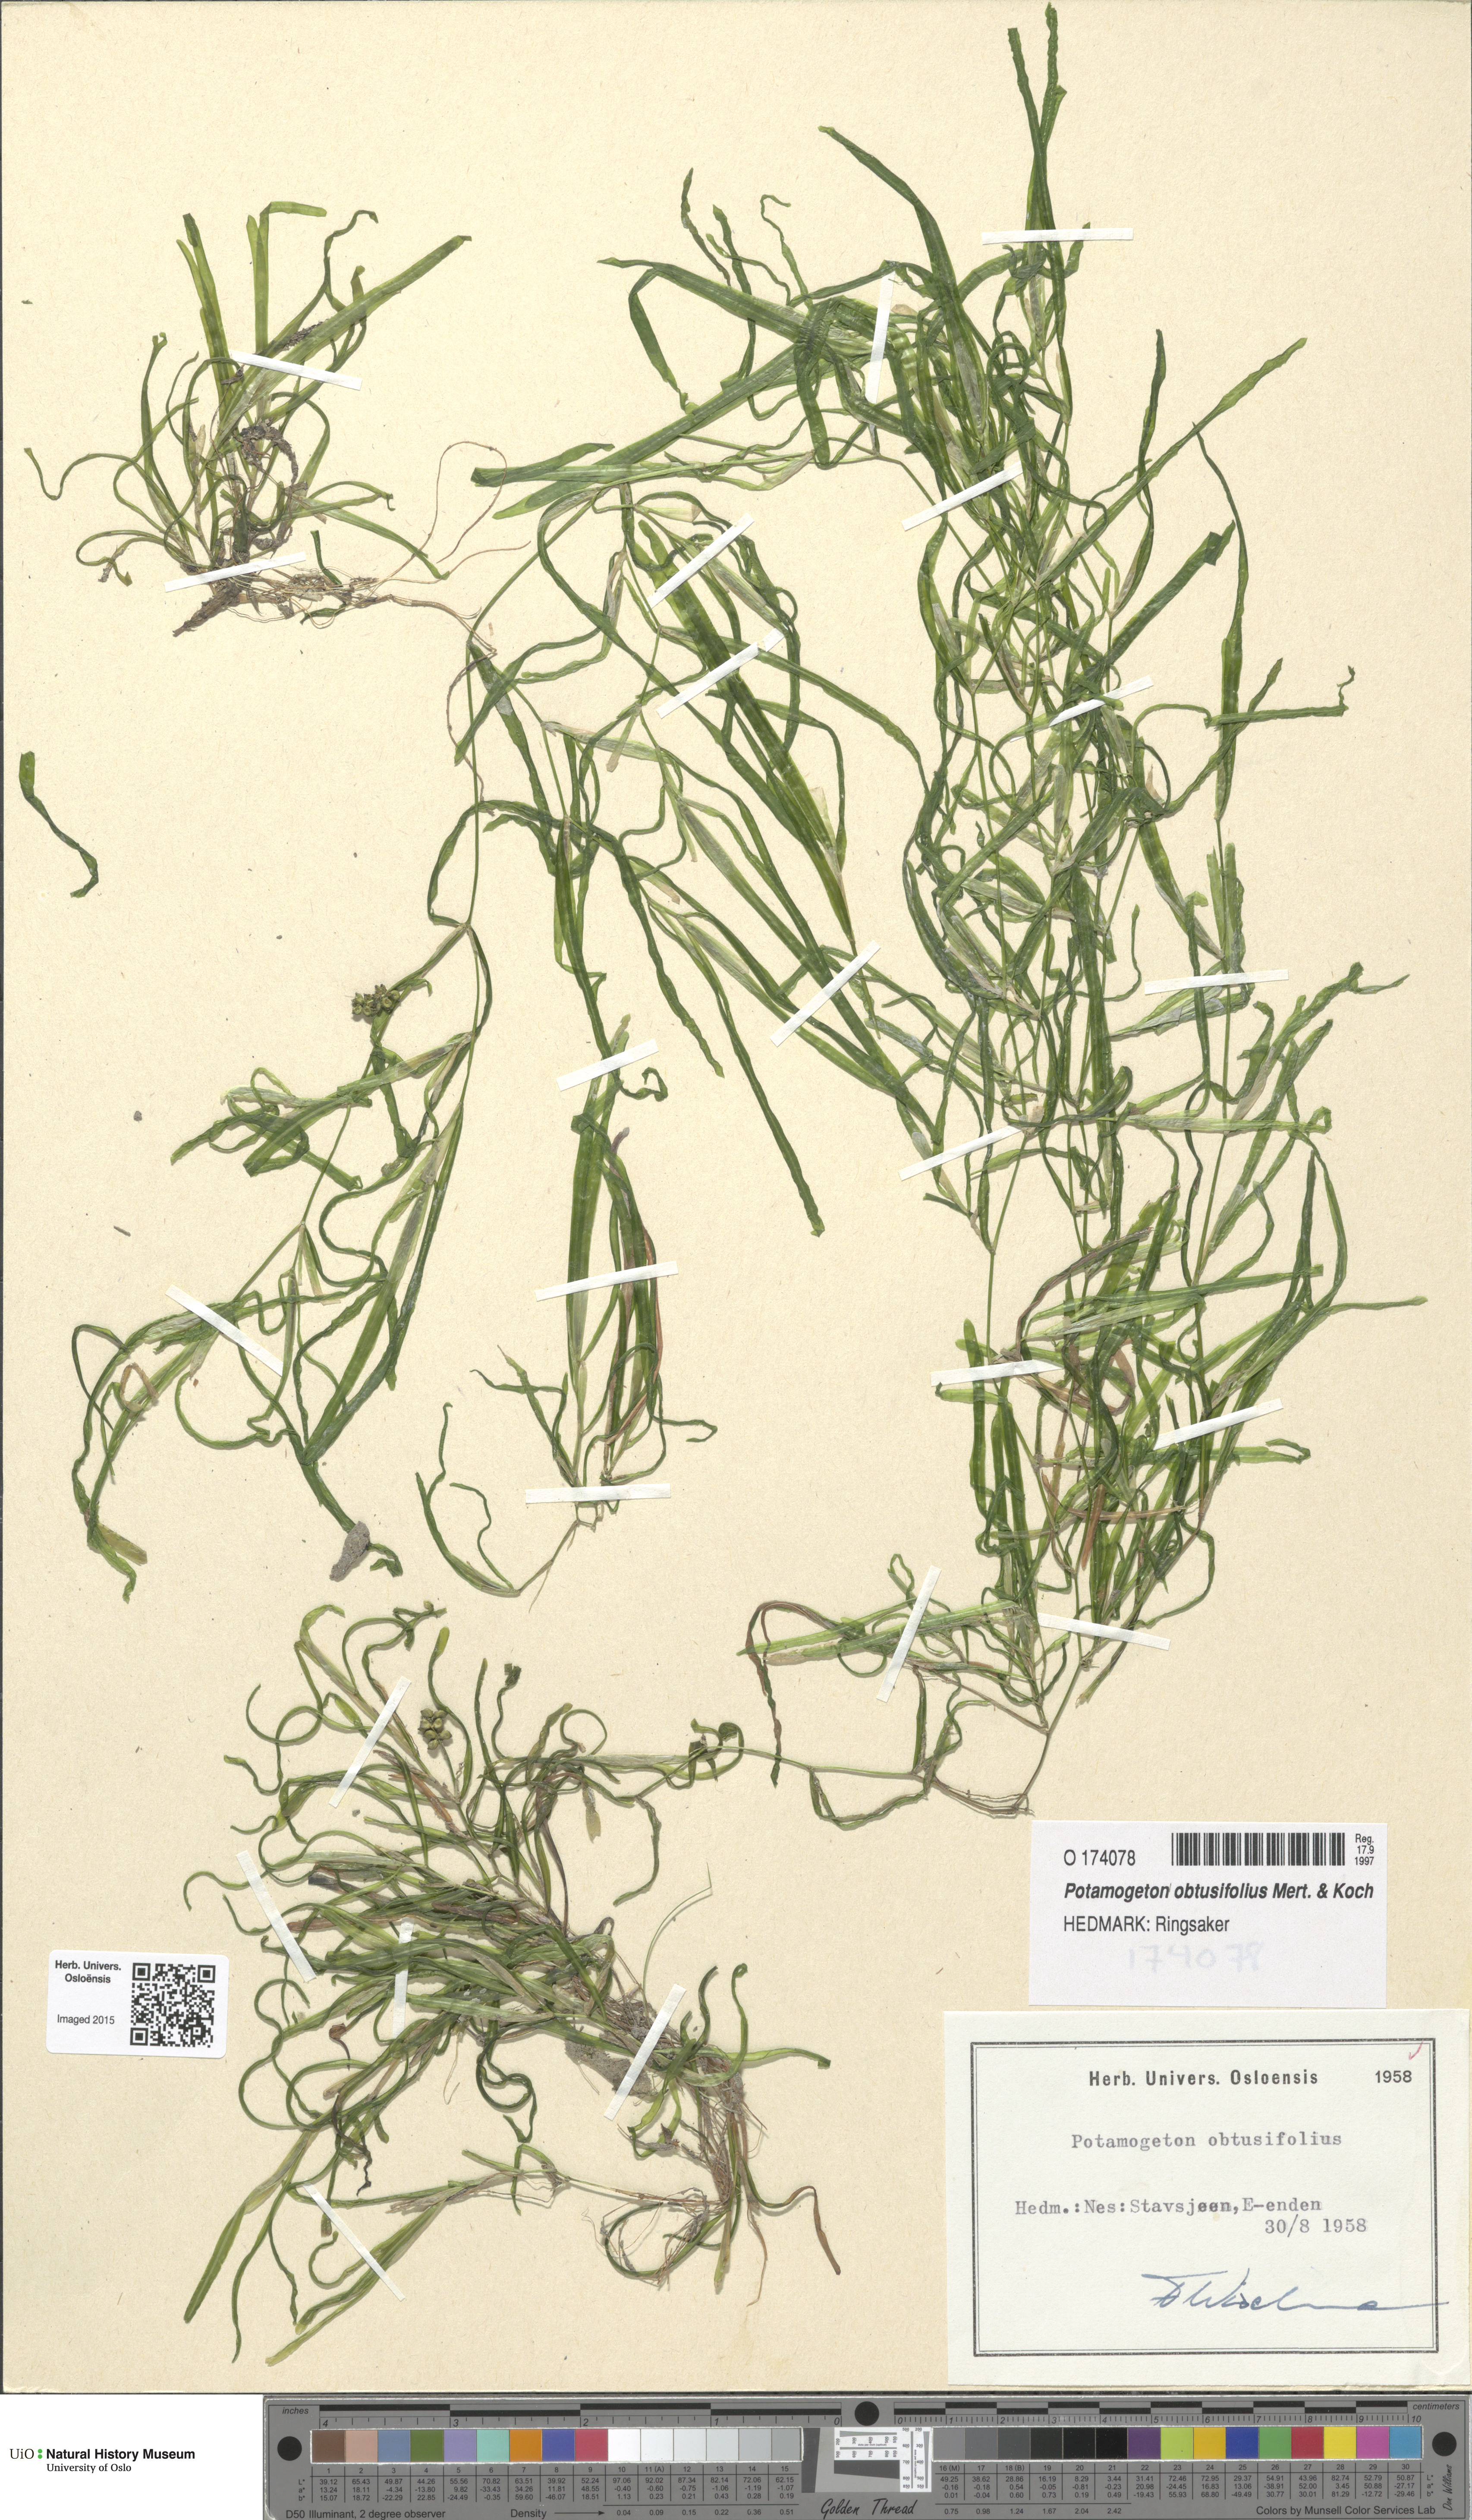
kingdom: Plantae
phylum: Tracheophyta
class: Liliopsida
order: Alismatales
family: Potamogetonaceae
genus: Potamogeton
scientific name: Potamogeton obtusifolius
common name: Blunt-leaved pondweed
